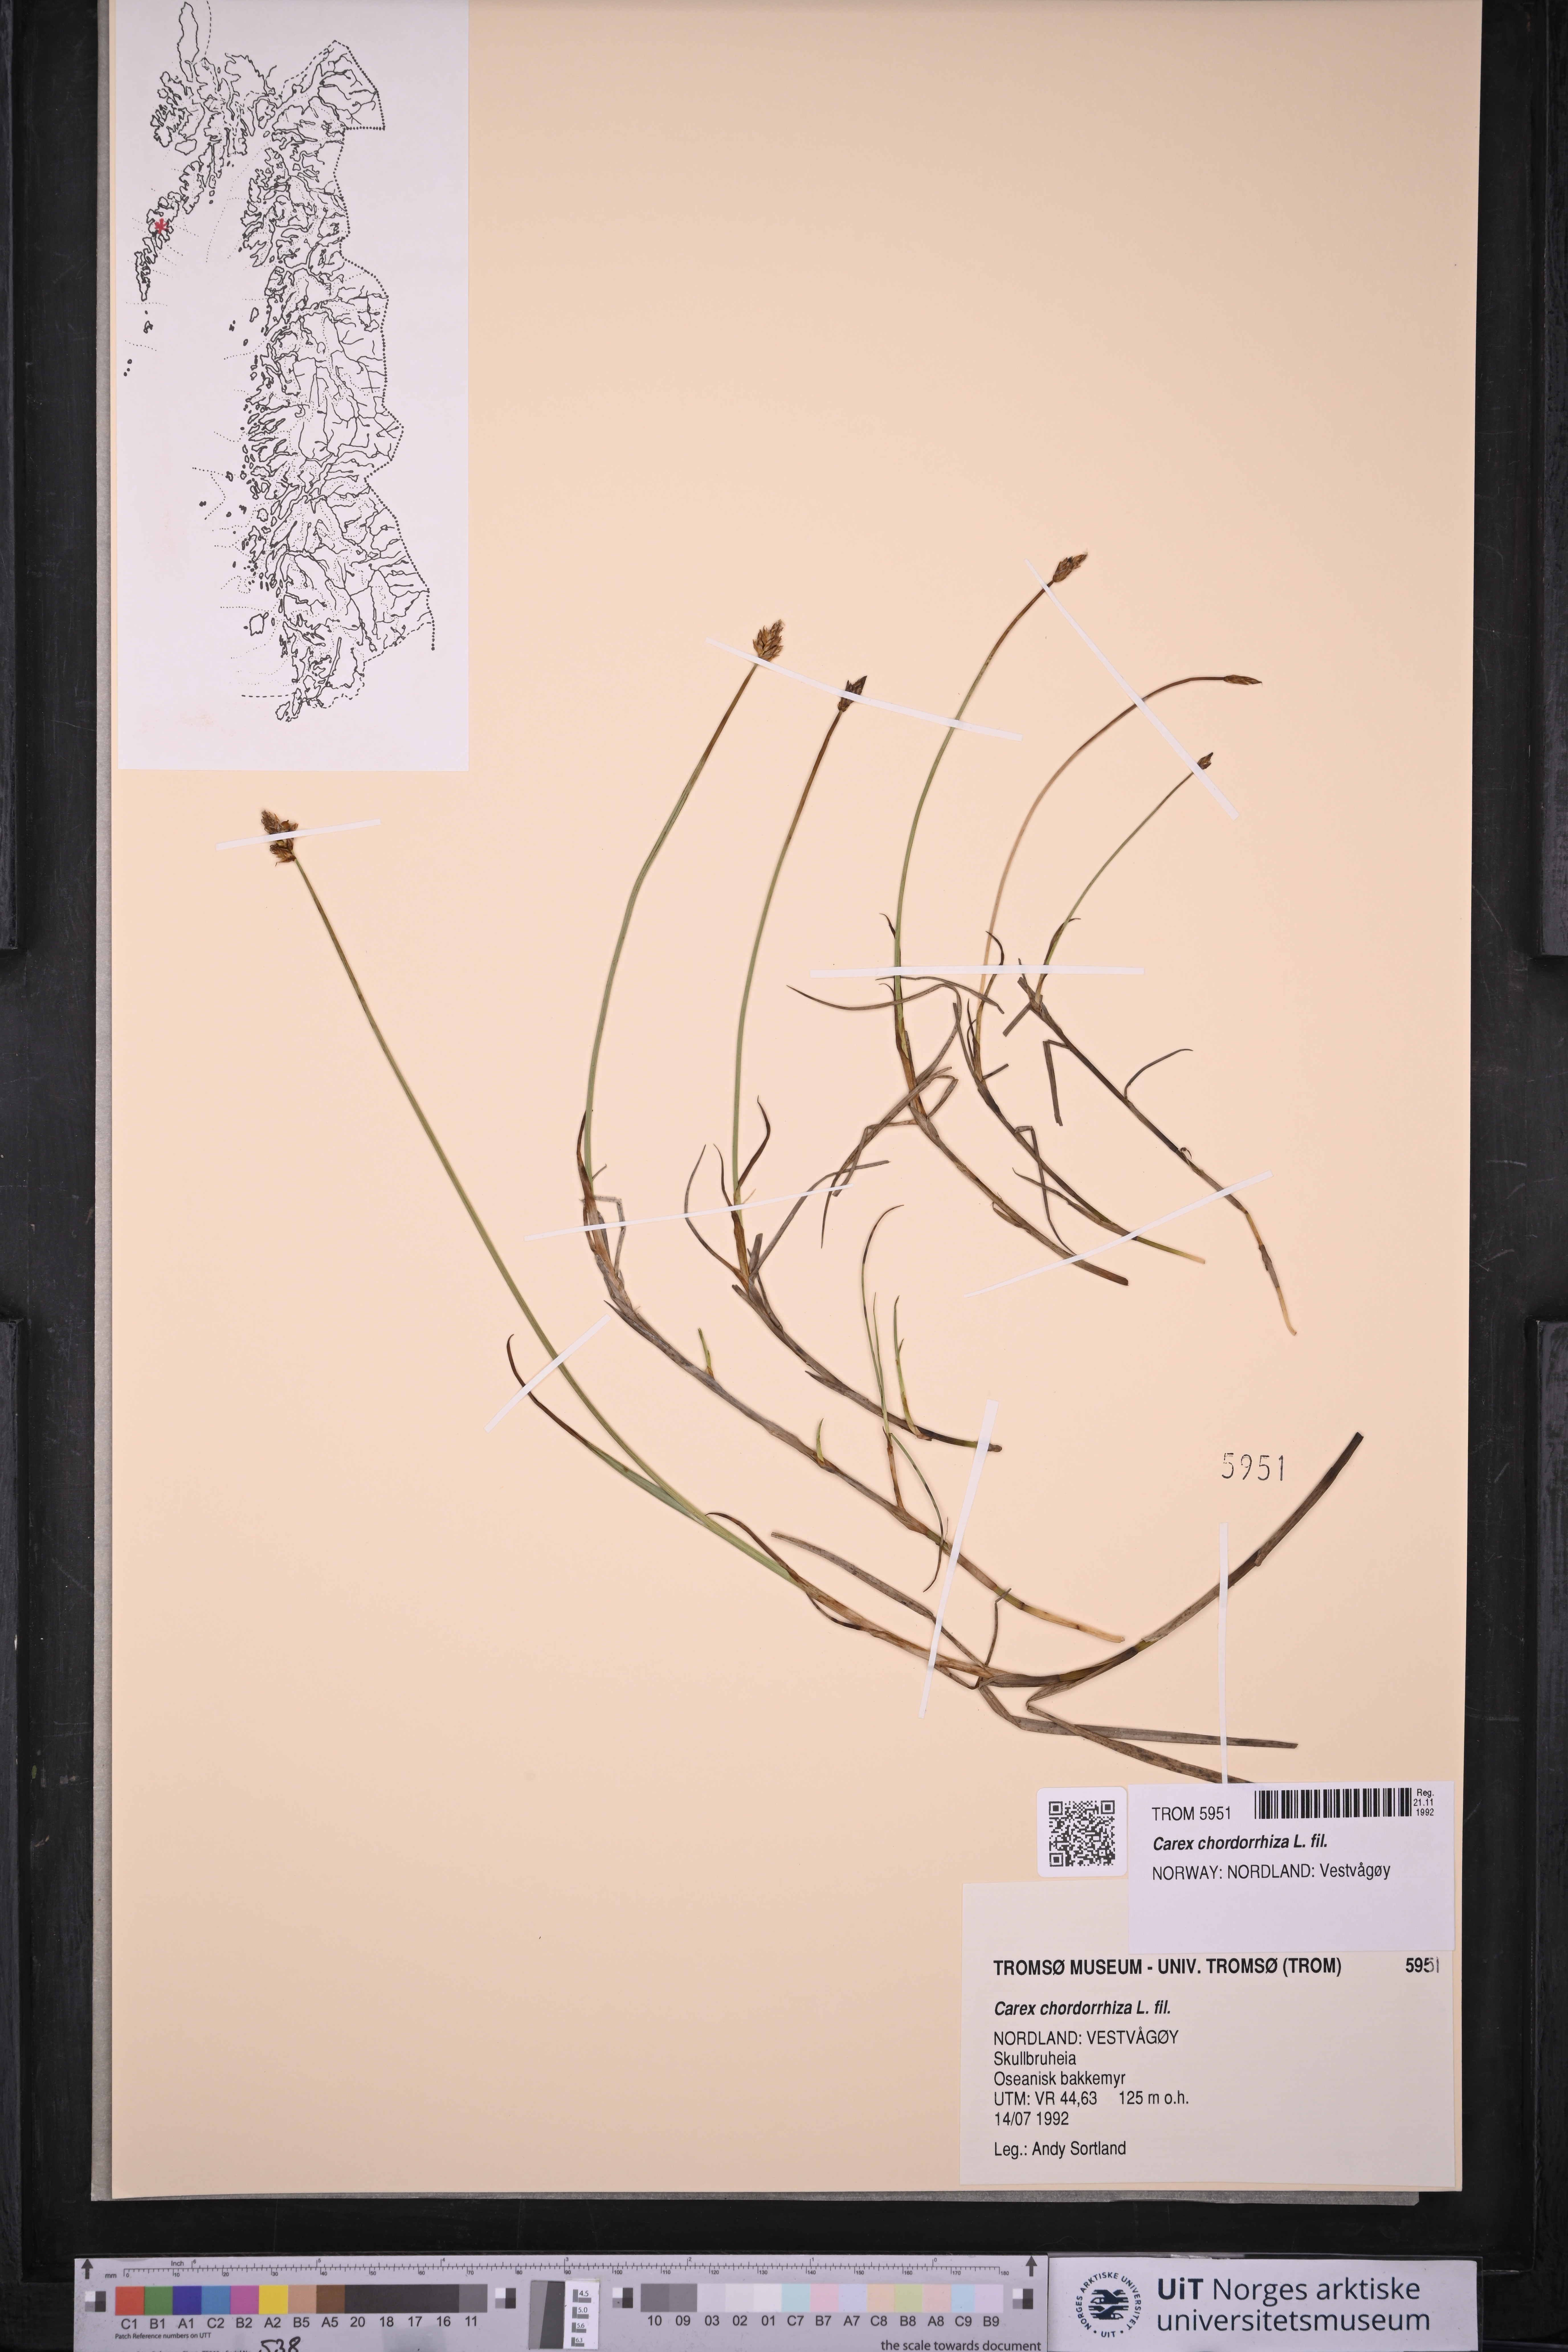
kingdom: Plantae
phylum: Tracheophyta
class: Liliopsida
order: Poales
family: Cyperaceae
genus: Carex
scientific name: Carex chordorrhiza
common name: String sedge
